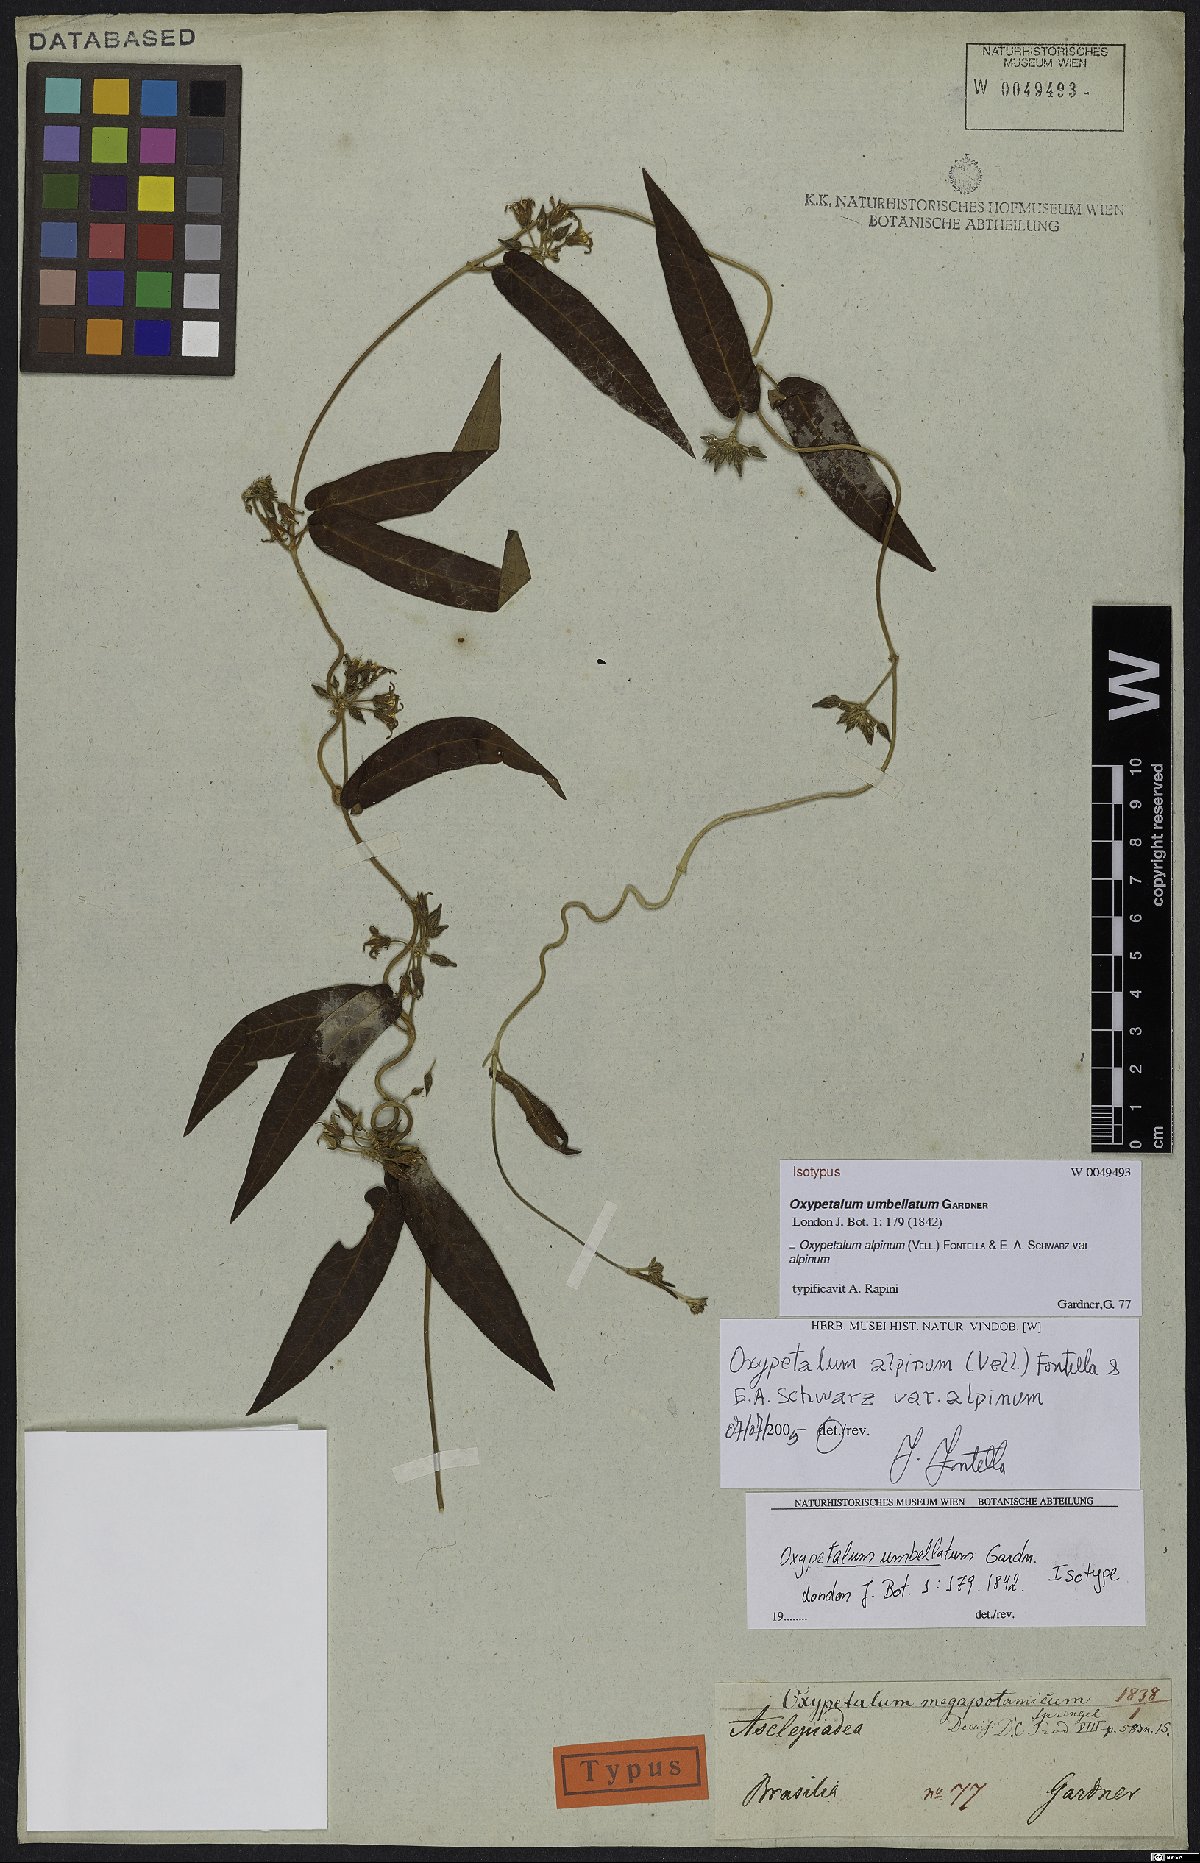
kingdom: Plantae
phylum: Tracheophyta
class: Magnoliopsida
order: Gentianales
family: Apocynaceae
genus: Oxypetalum
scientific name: Oxypetalum alpinum
